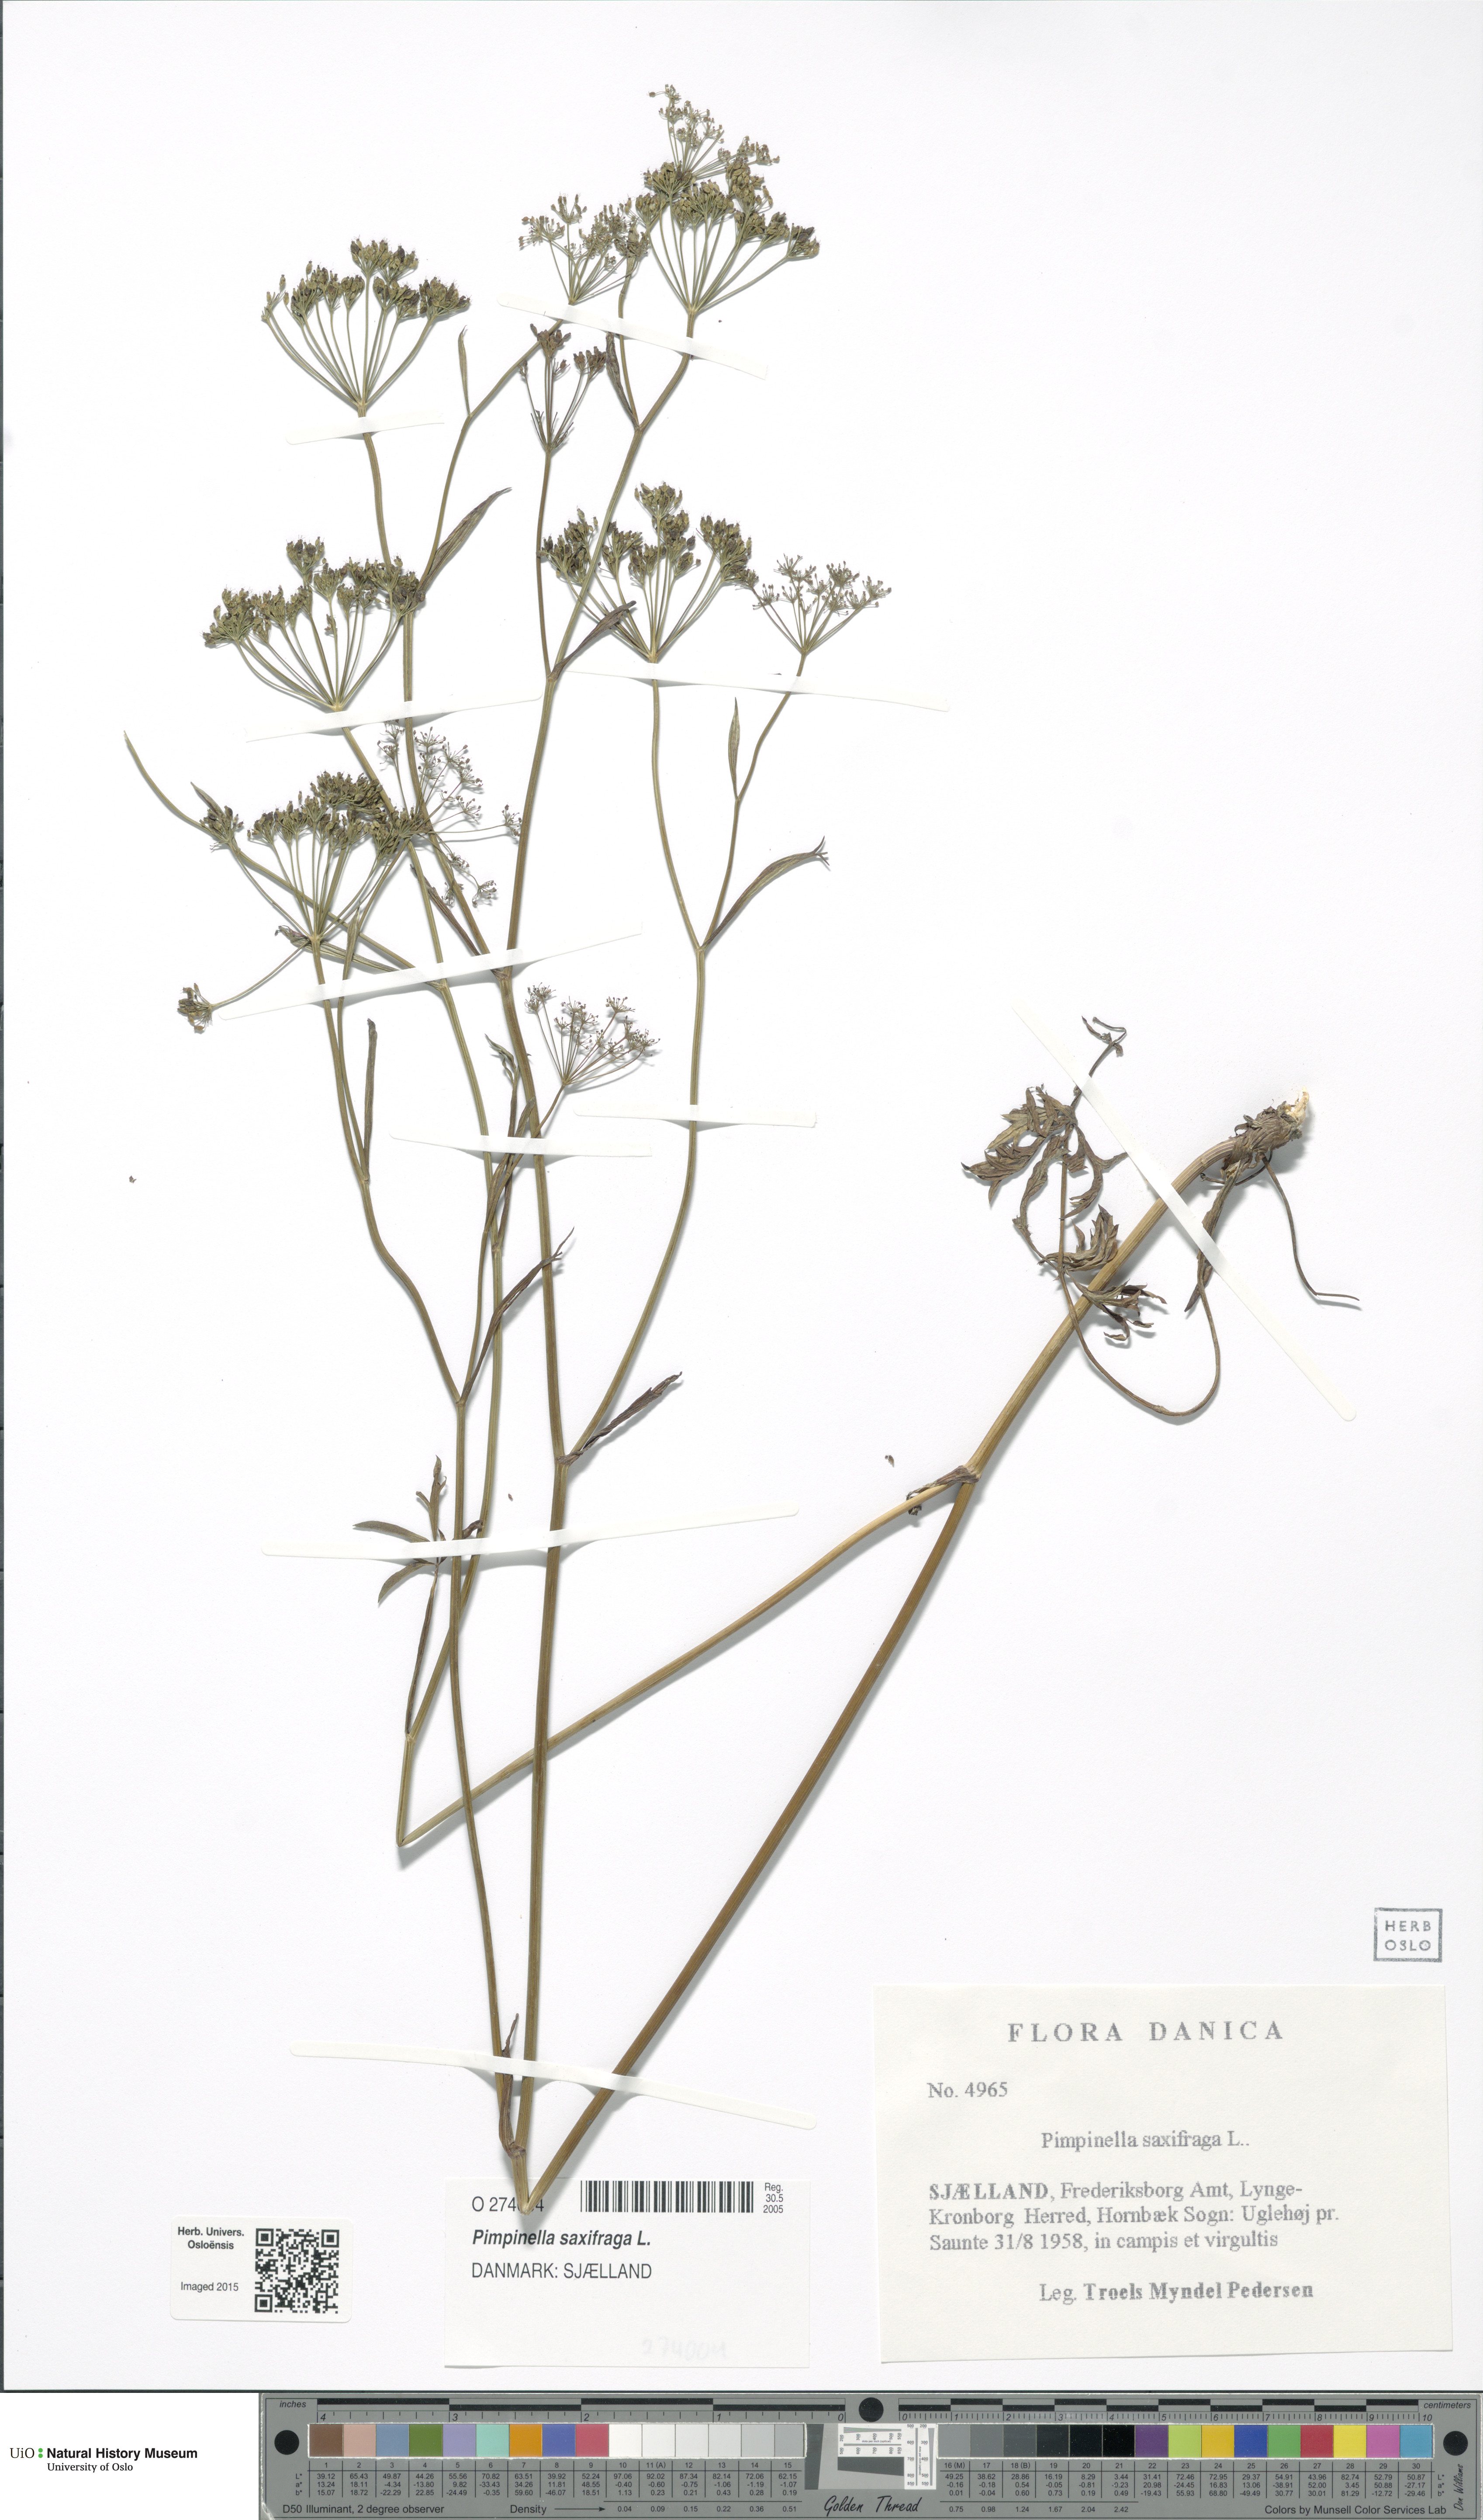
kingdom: Plantae
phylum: Tracheophyta
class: Magnoliopsida
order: Apiales
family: Apiaceae
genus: Pimpinella
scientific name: Pimpinella saxifraga
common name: Burnet-saxifrage
